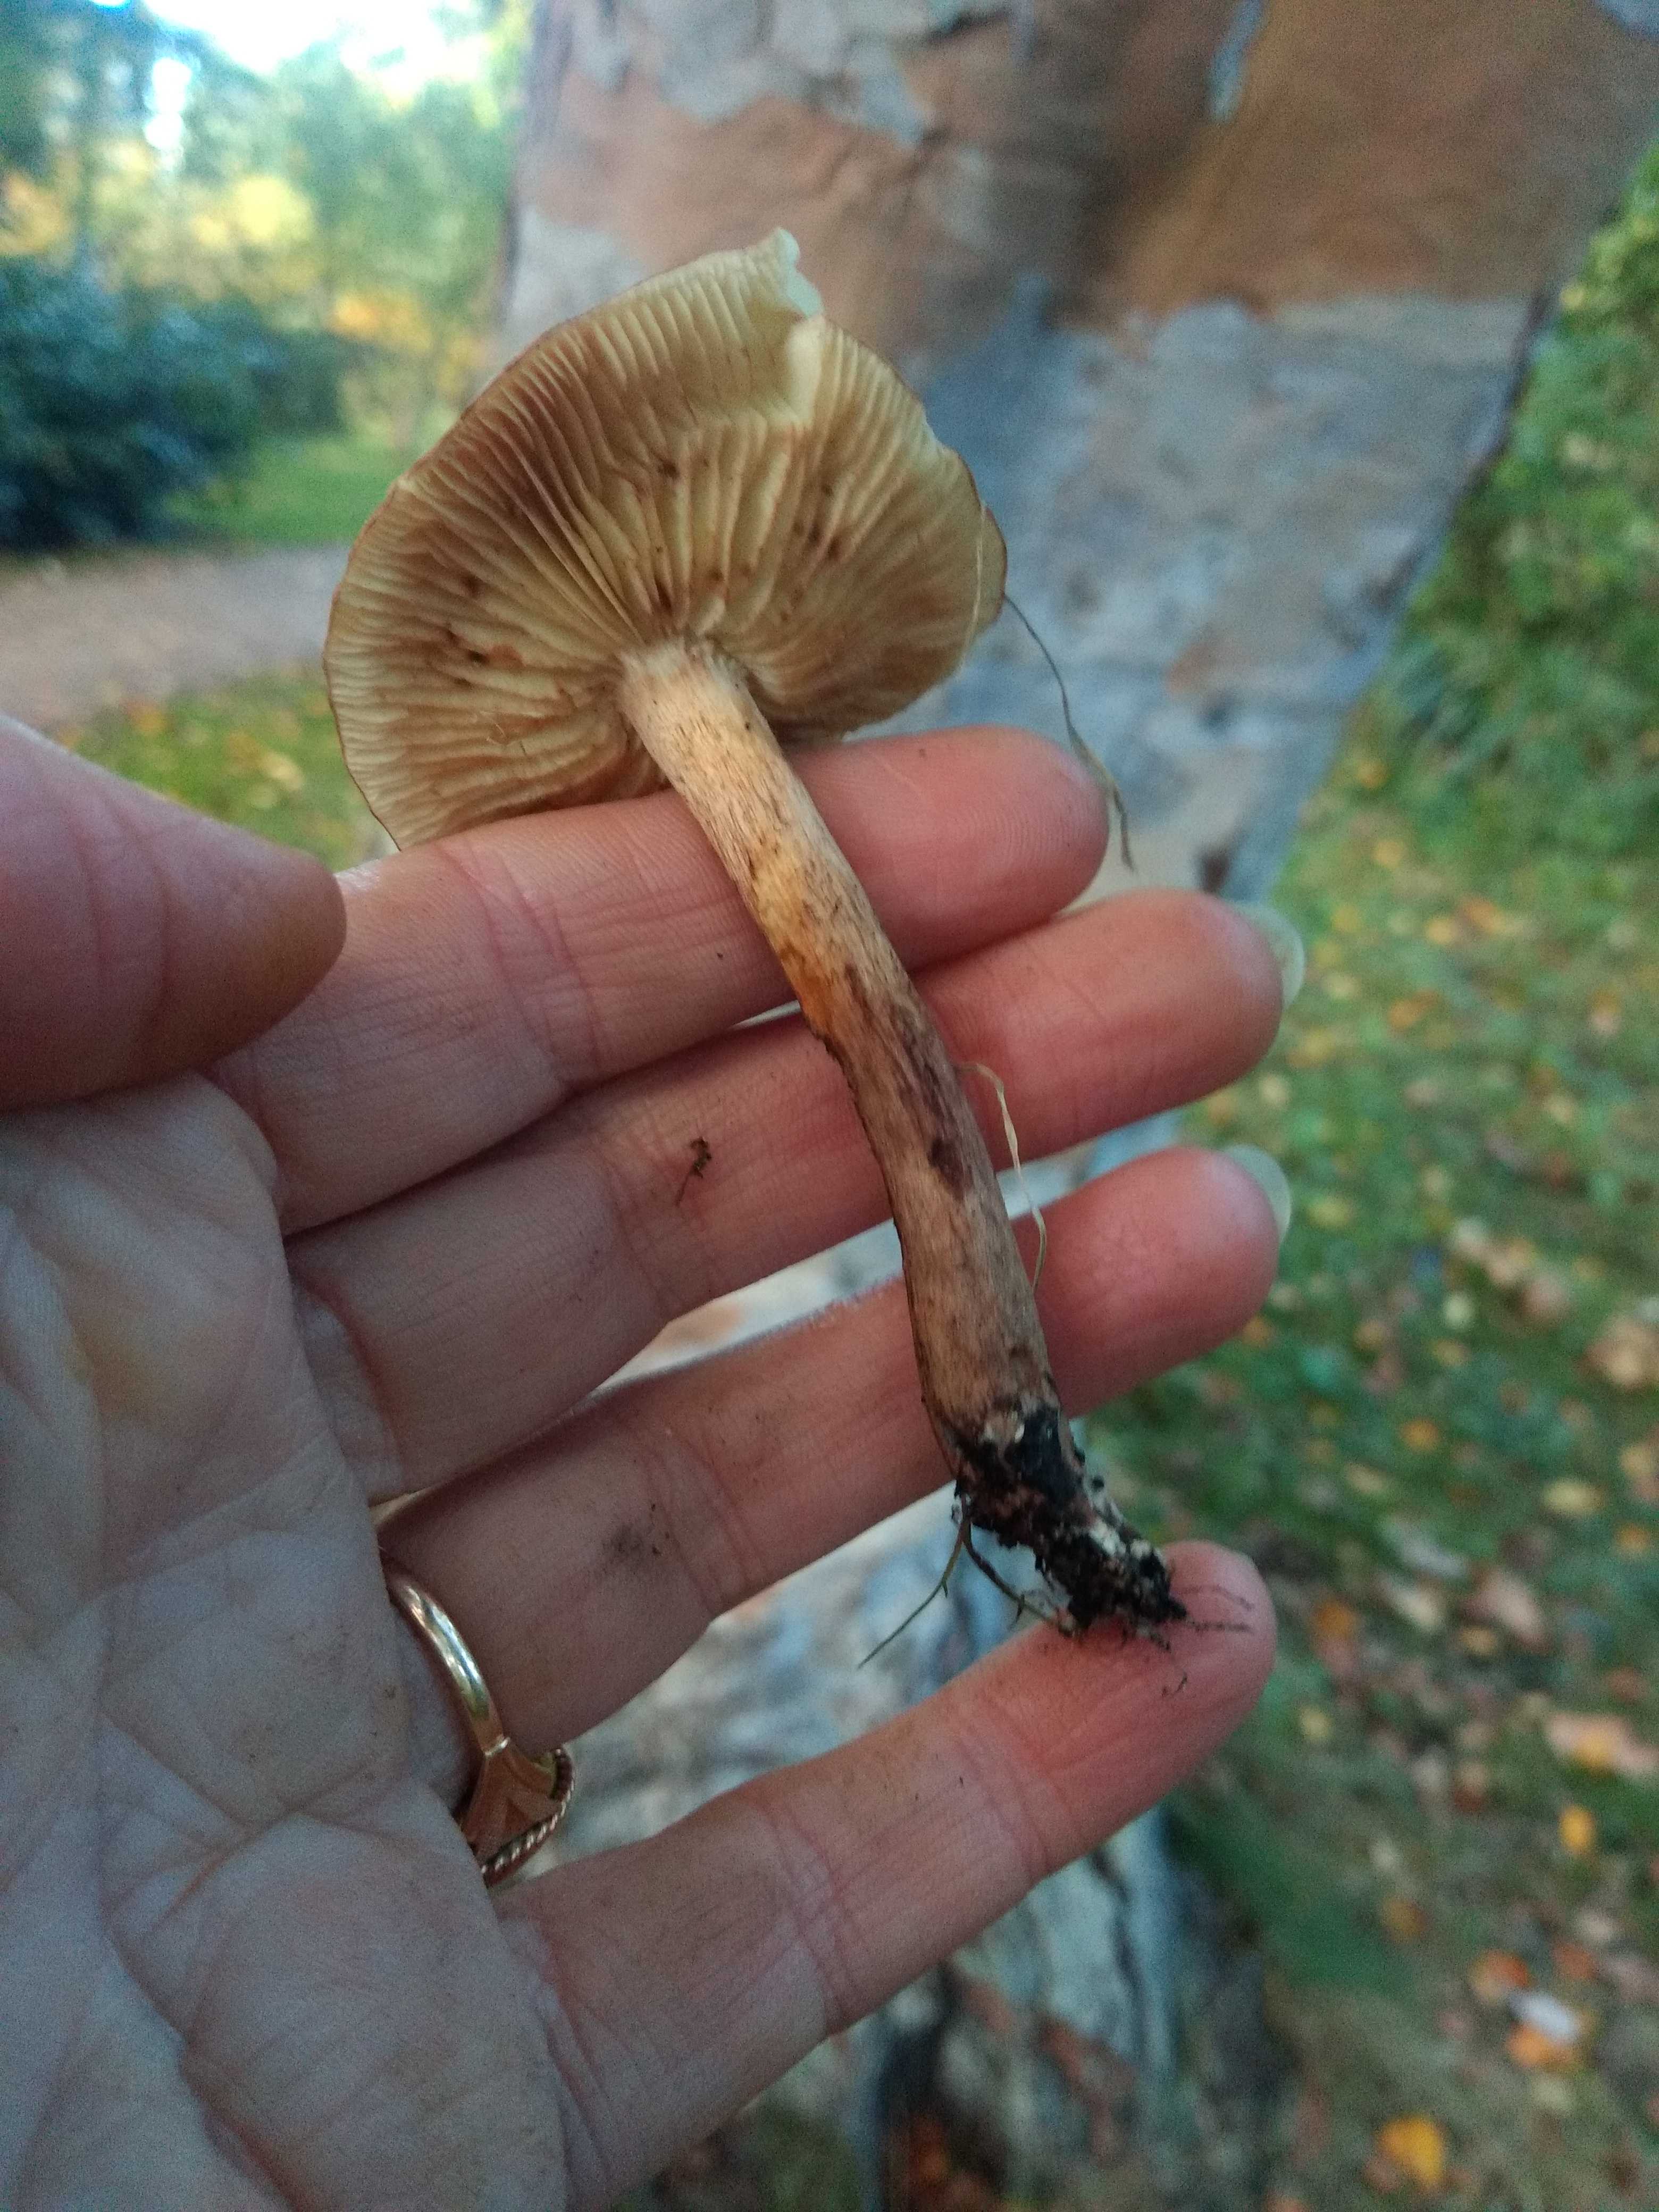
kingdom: Fungi
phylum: Basidiomycota
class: Agaricomycetes
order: Agaricales
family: Tricholomataceae
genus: Tricholoma
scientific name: Tricholoma fulvum
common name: birke-ridderhat
